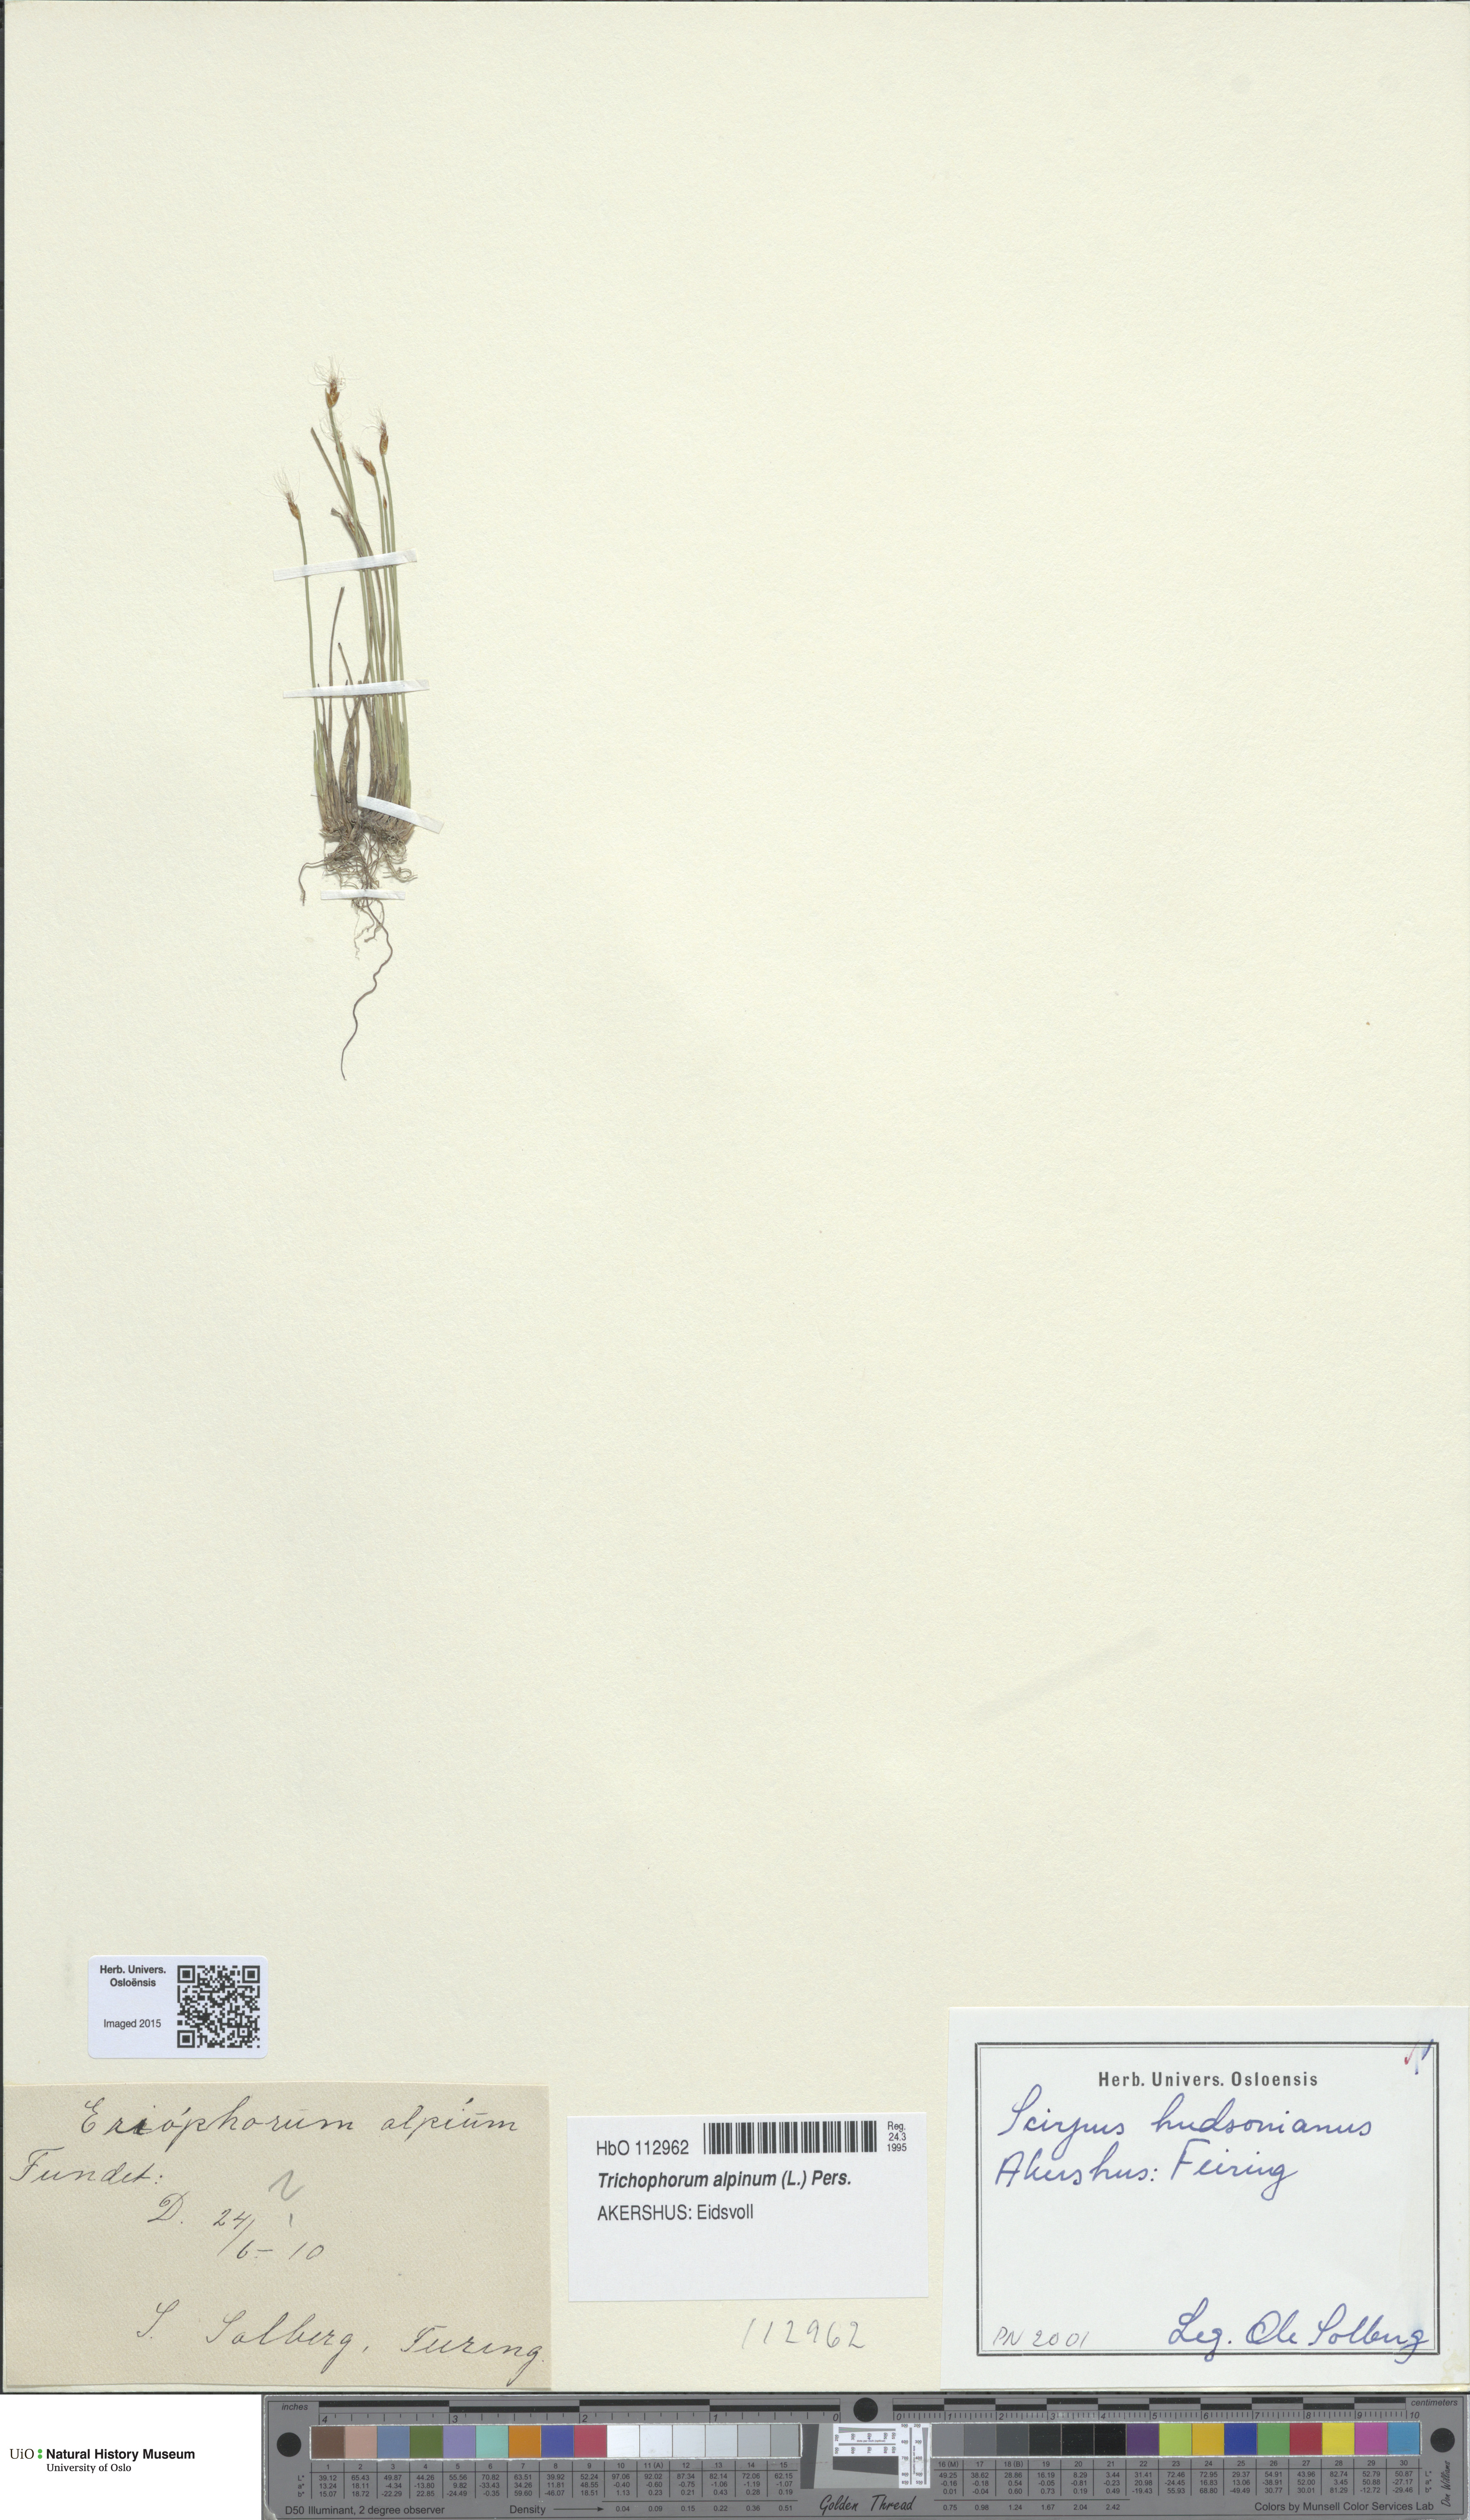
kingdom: Plantae
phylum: Tracheophyta
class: Liliopsida
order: Poales
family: Cyperaceae
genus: Trichophorum
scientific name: Trichophorum alpinum
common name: Alpine bulrush
